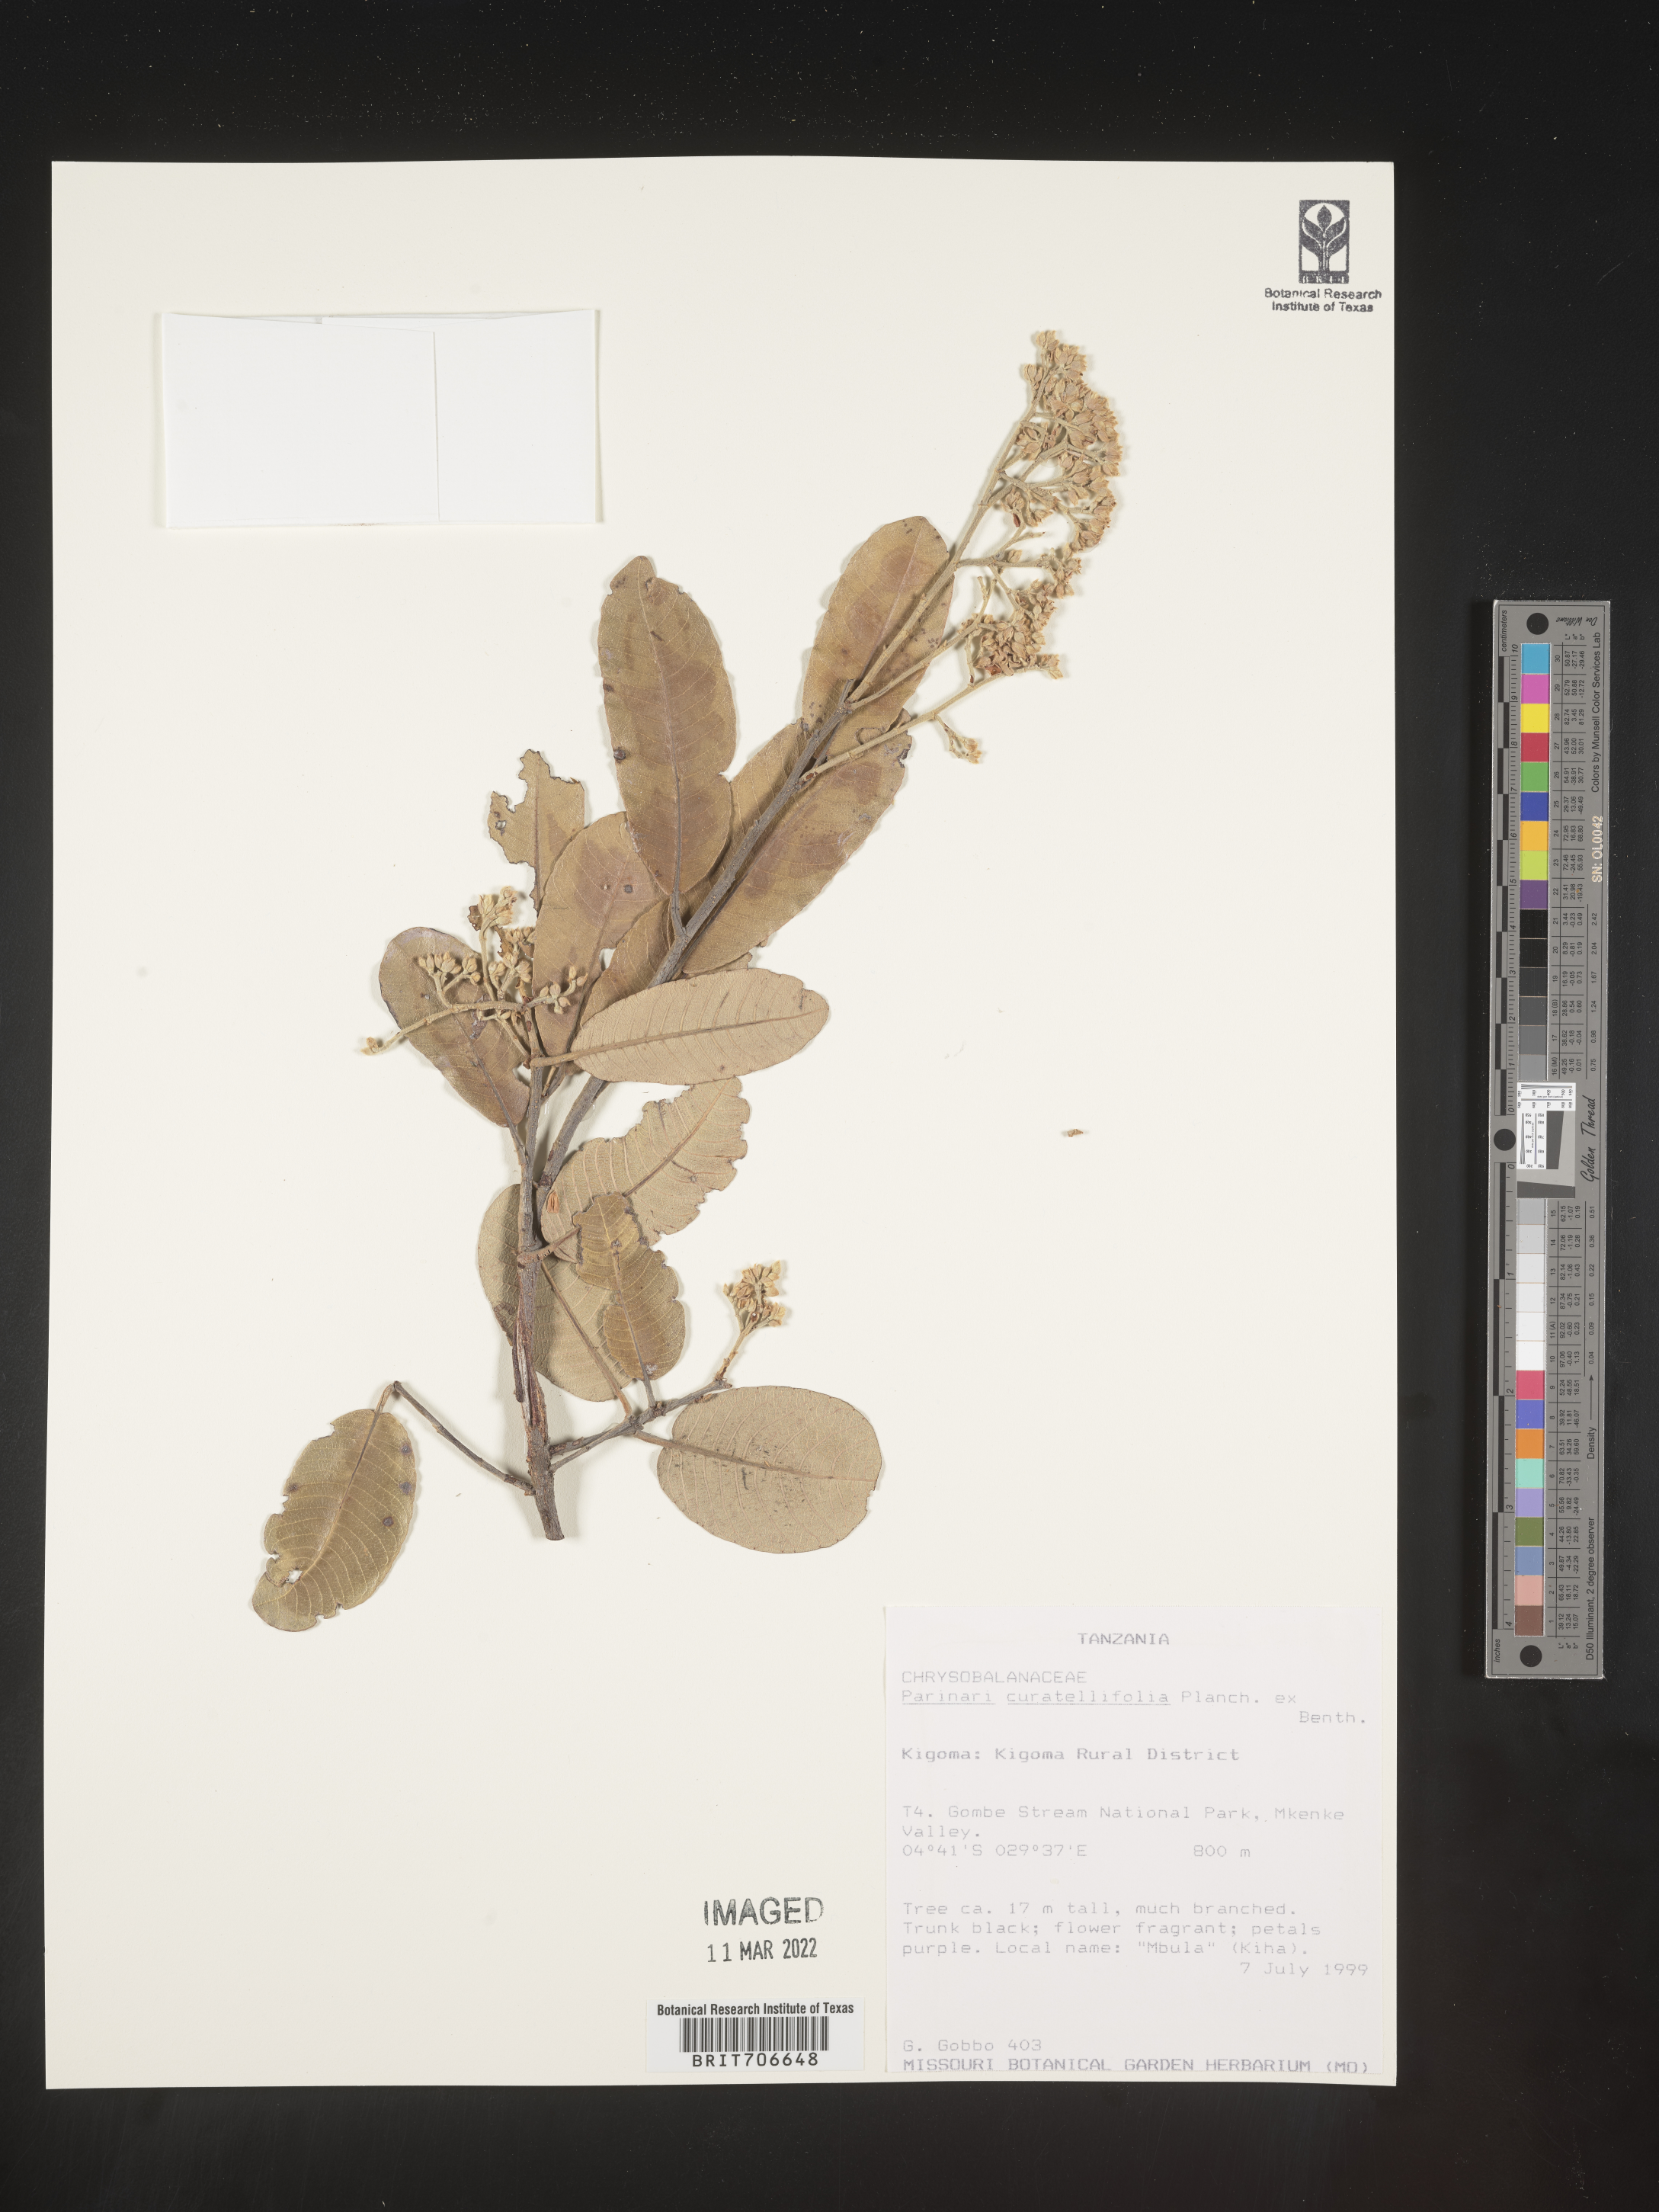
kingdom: Plantae
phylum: Tracheophyta
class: Magnoliopsida
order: Malpighiales
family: Chrysobalanaceae
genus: Parinari
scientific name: Parinari
